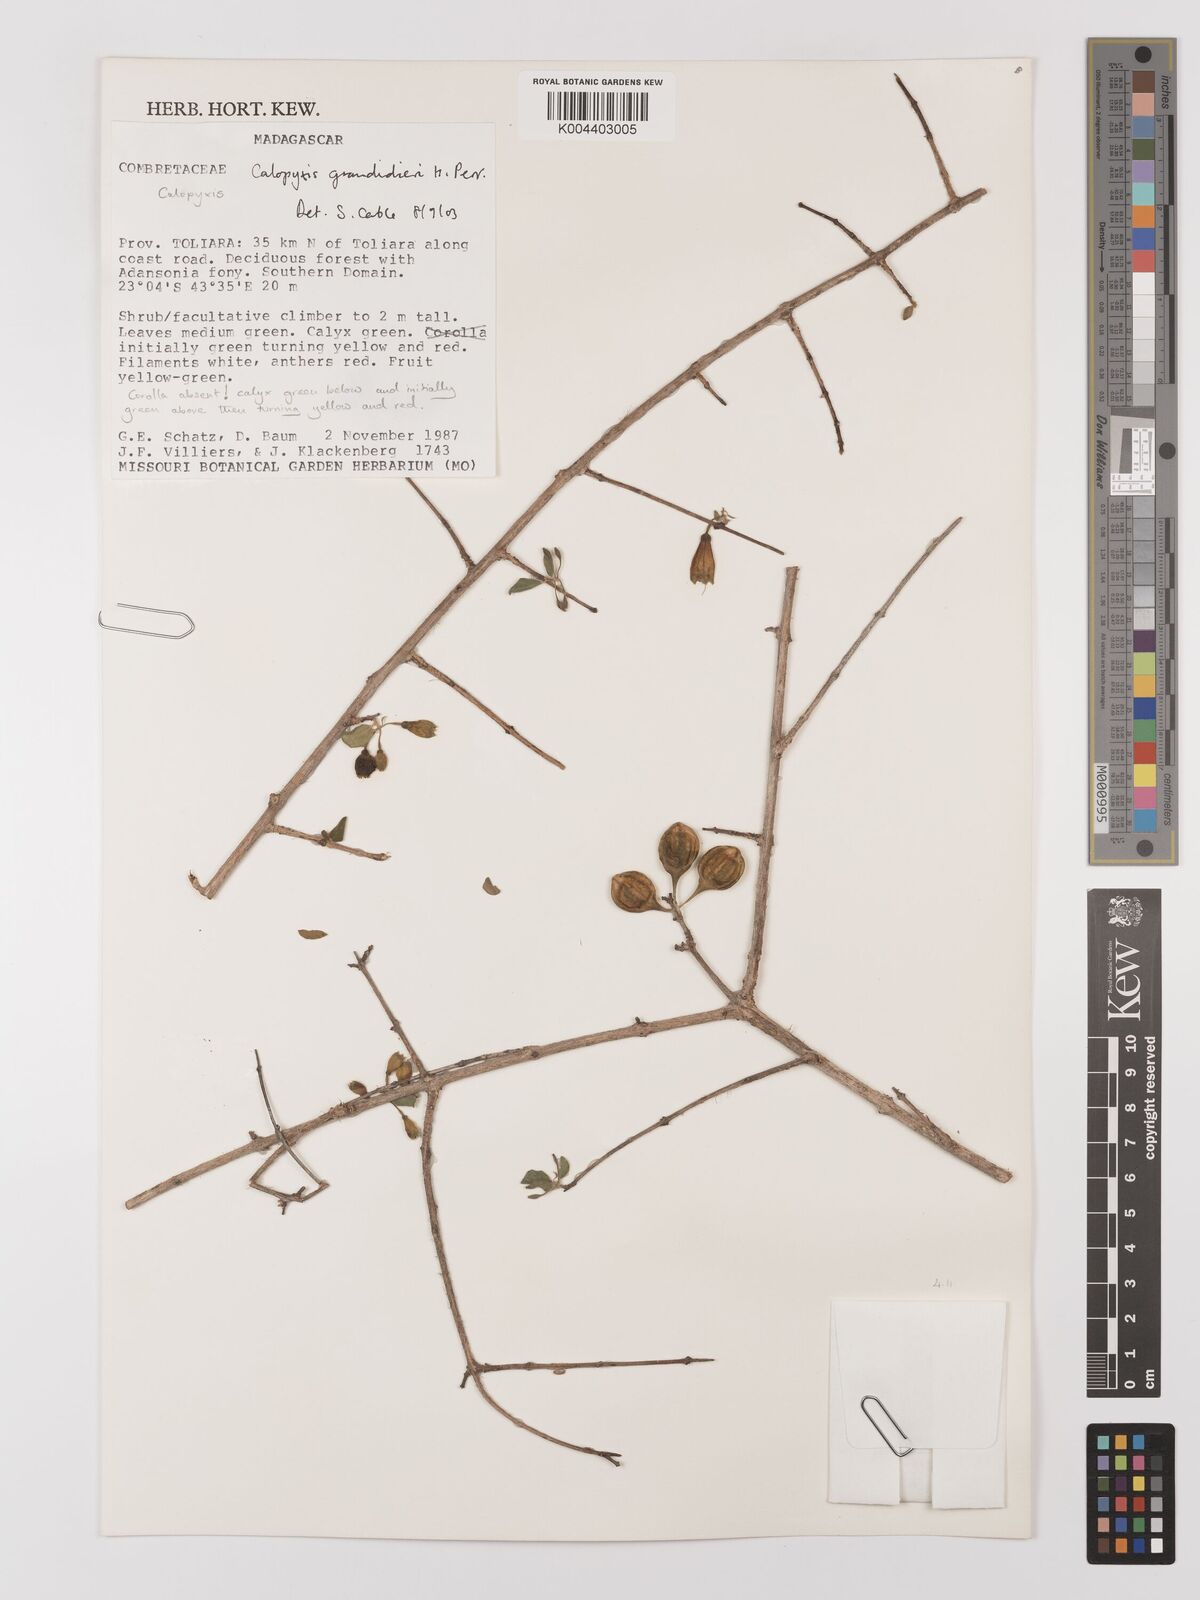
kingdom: Plantae
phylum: Tracheophyta
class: Magnoliopsida
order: Myrtales
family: Combretaceae
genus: Combretum
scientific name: Combretum grandidieri
